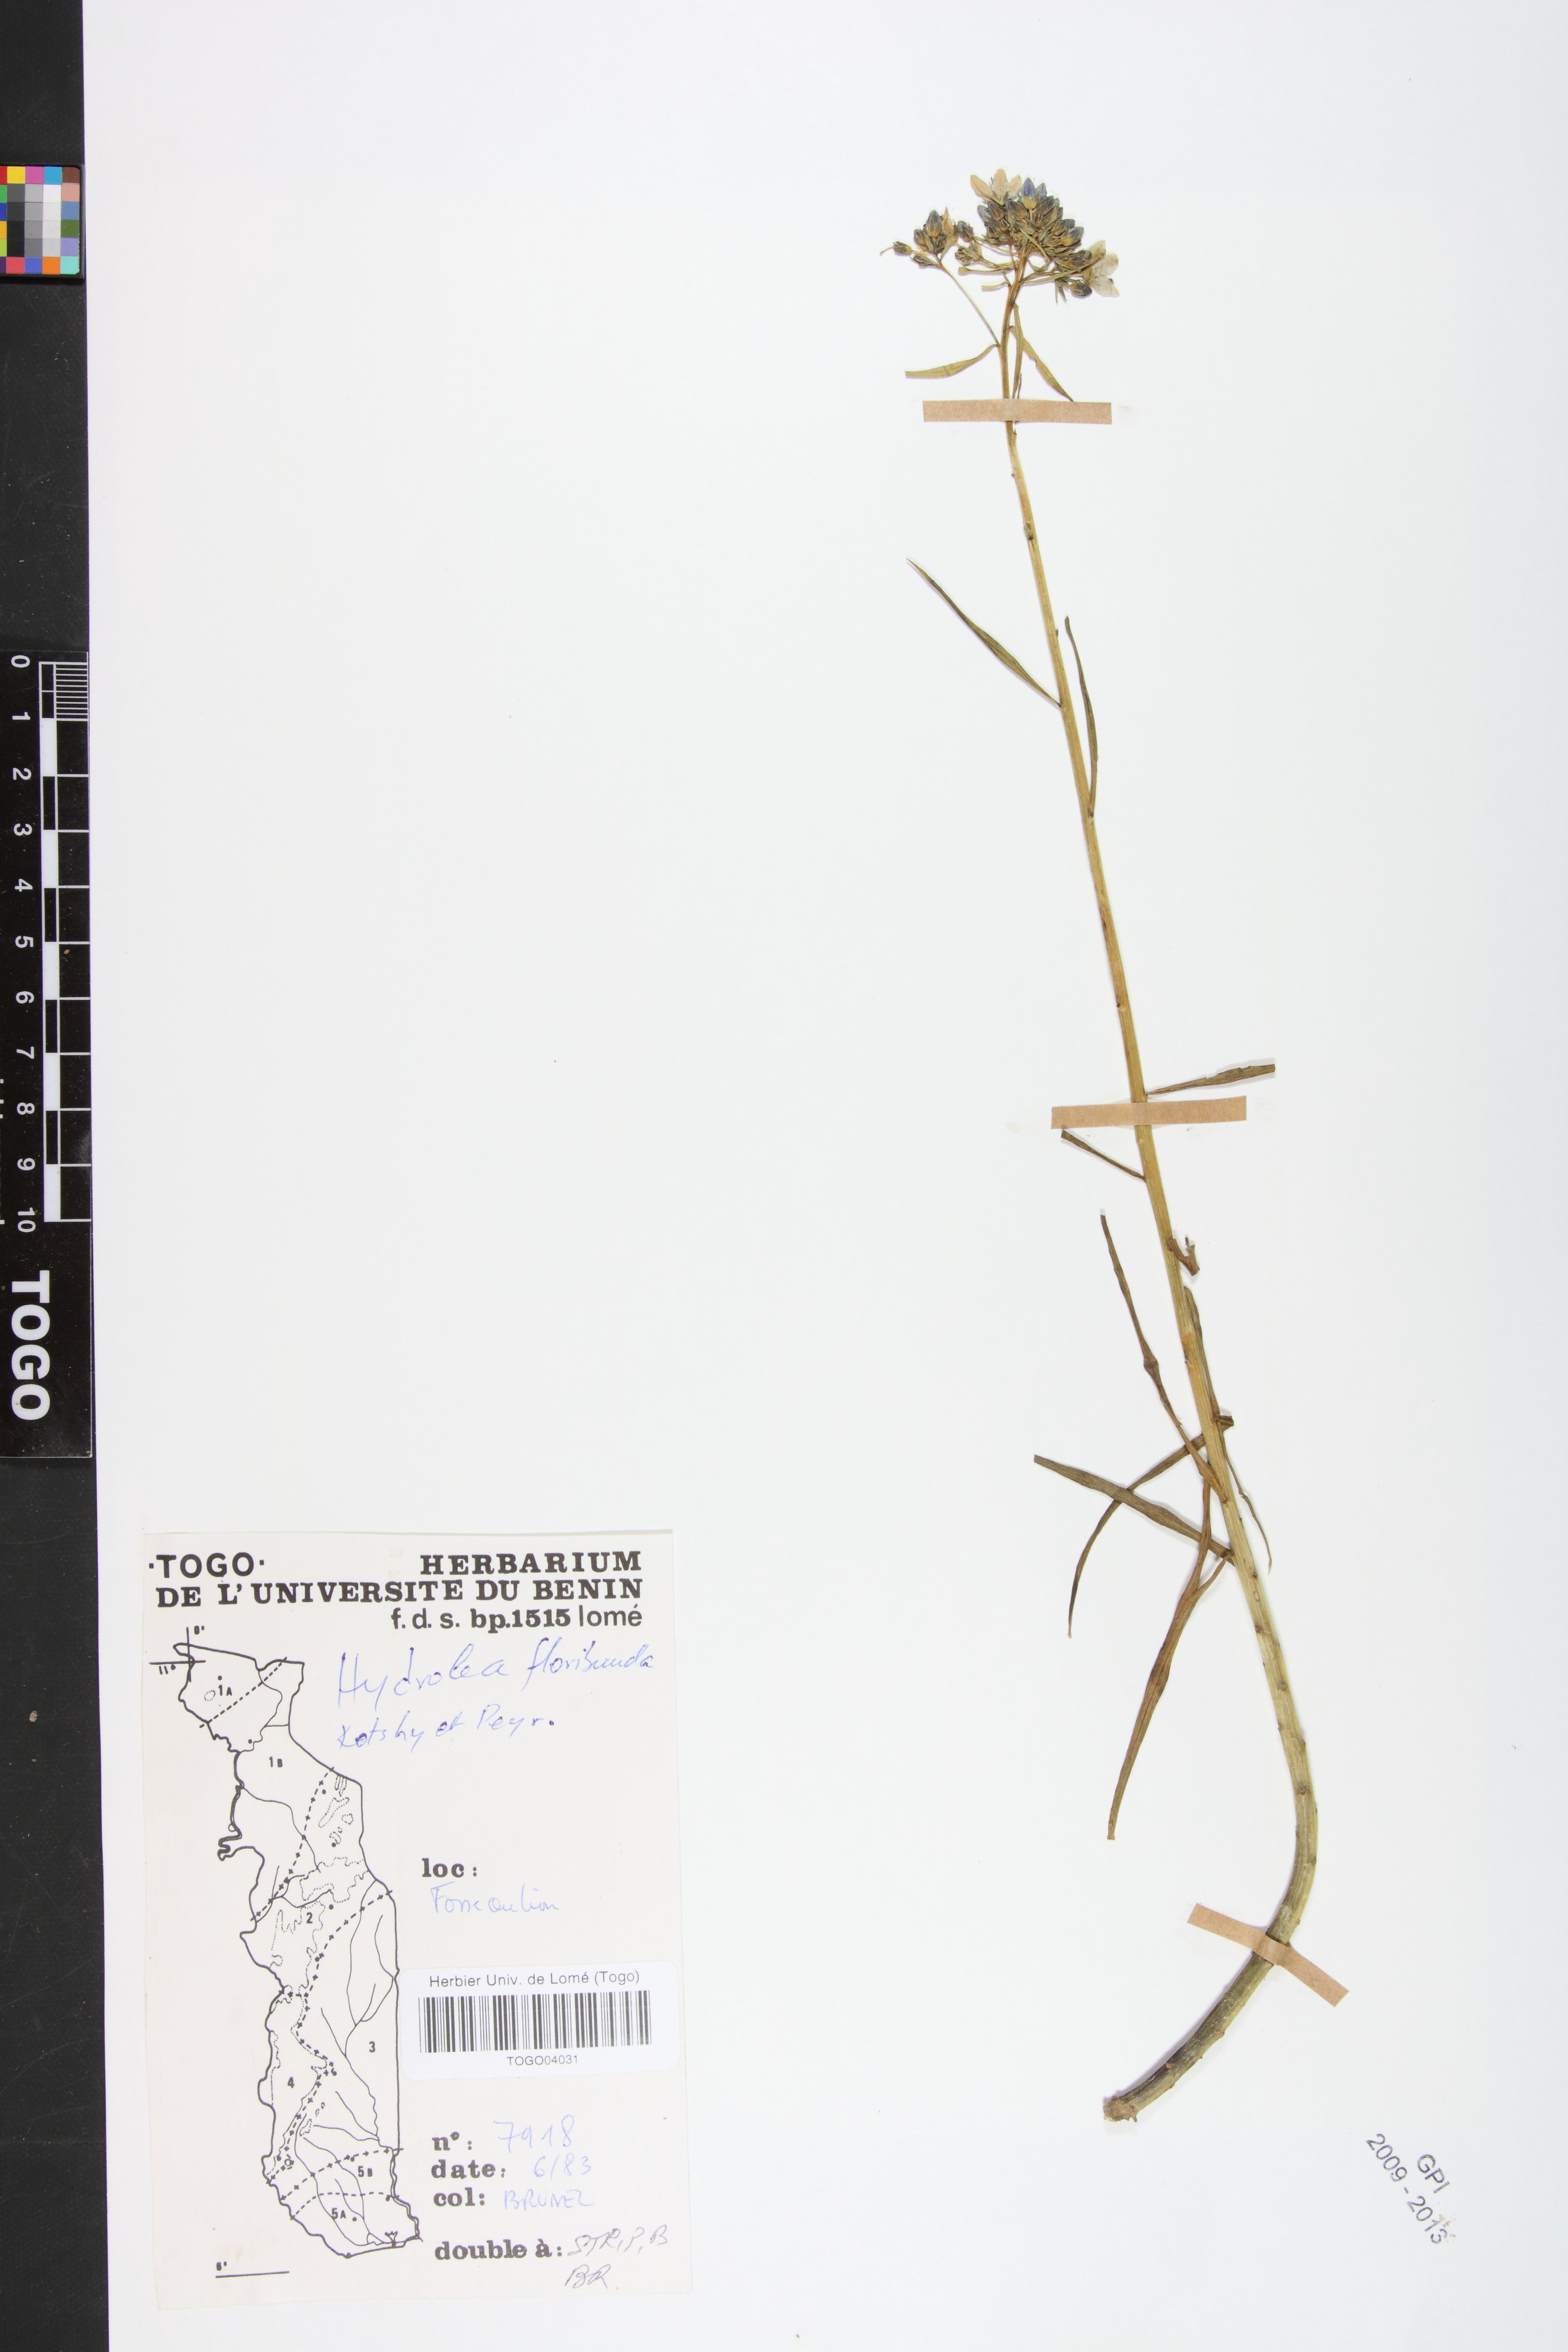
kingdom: Plantae
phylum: Tracheophyta
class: Magnoliopsida
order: Solanales
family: Hydroleaceae
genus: Hydrolea
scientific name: Hydrolea floribunda
